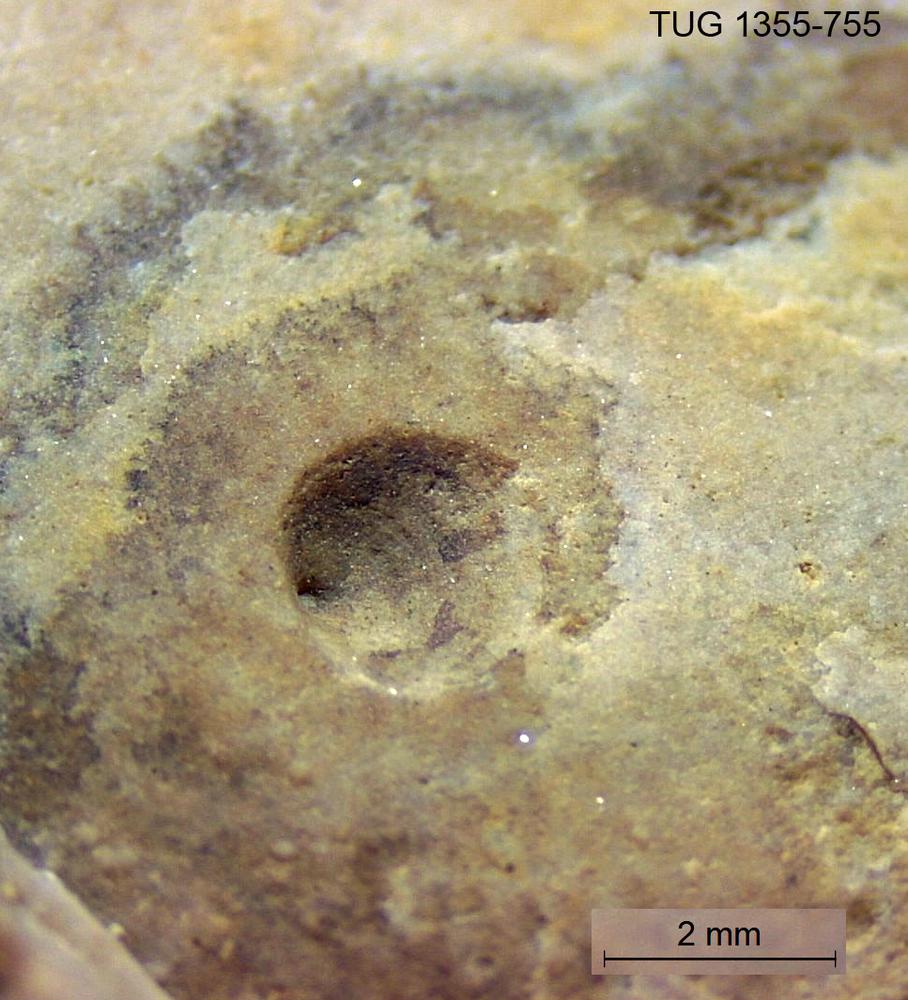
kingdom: Animalia
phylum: Brachiopoda
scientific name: Brachiopoda
